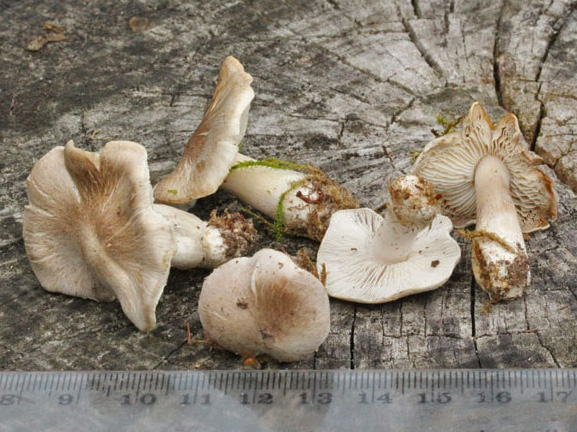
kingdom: Fungi
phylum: Basidiomycota
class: Agaricomycetes
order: Agaricales
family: Tricholomataceae
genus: Tricholoma
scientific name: Tricholoma argyraceum
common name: spids ridderhat
